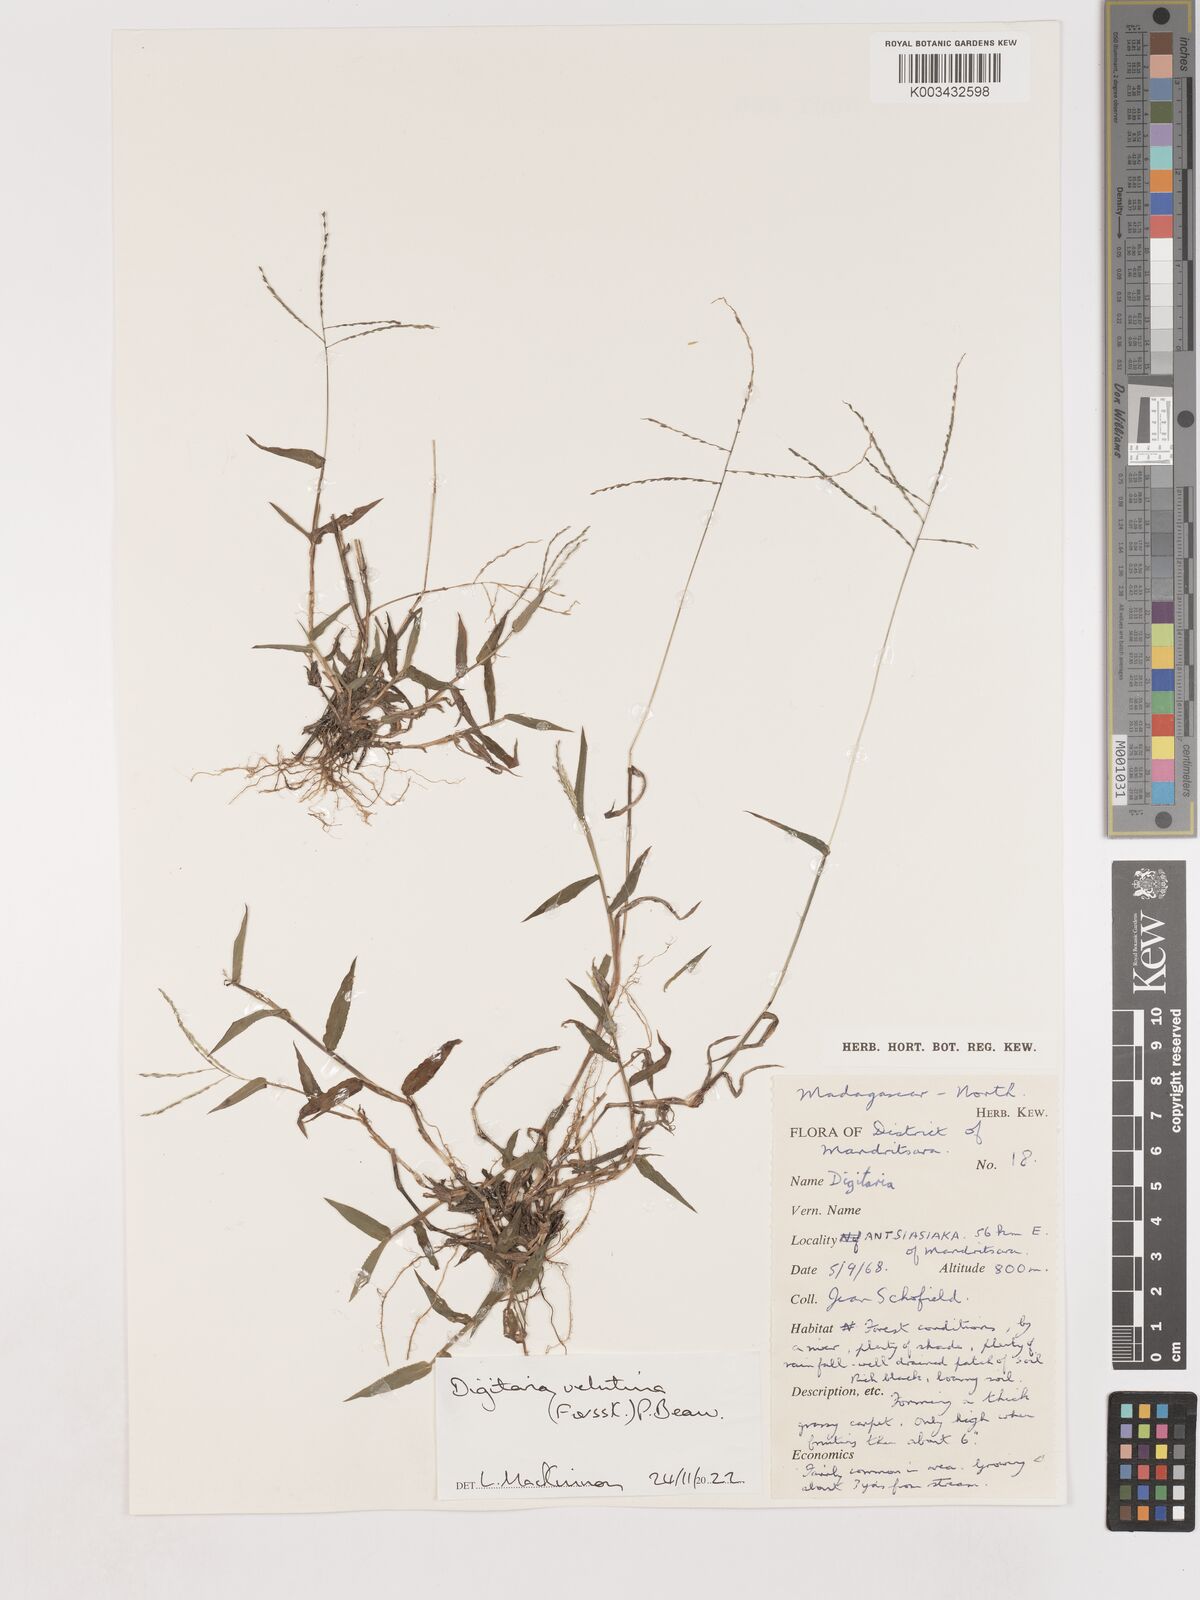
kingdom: Plantae
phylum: Tracheophyta
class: Liliopsida
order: Poales
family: Poaceae
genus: Digitaria
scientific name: Digitaria velutina
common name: Long-plume finger grass
